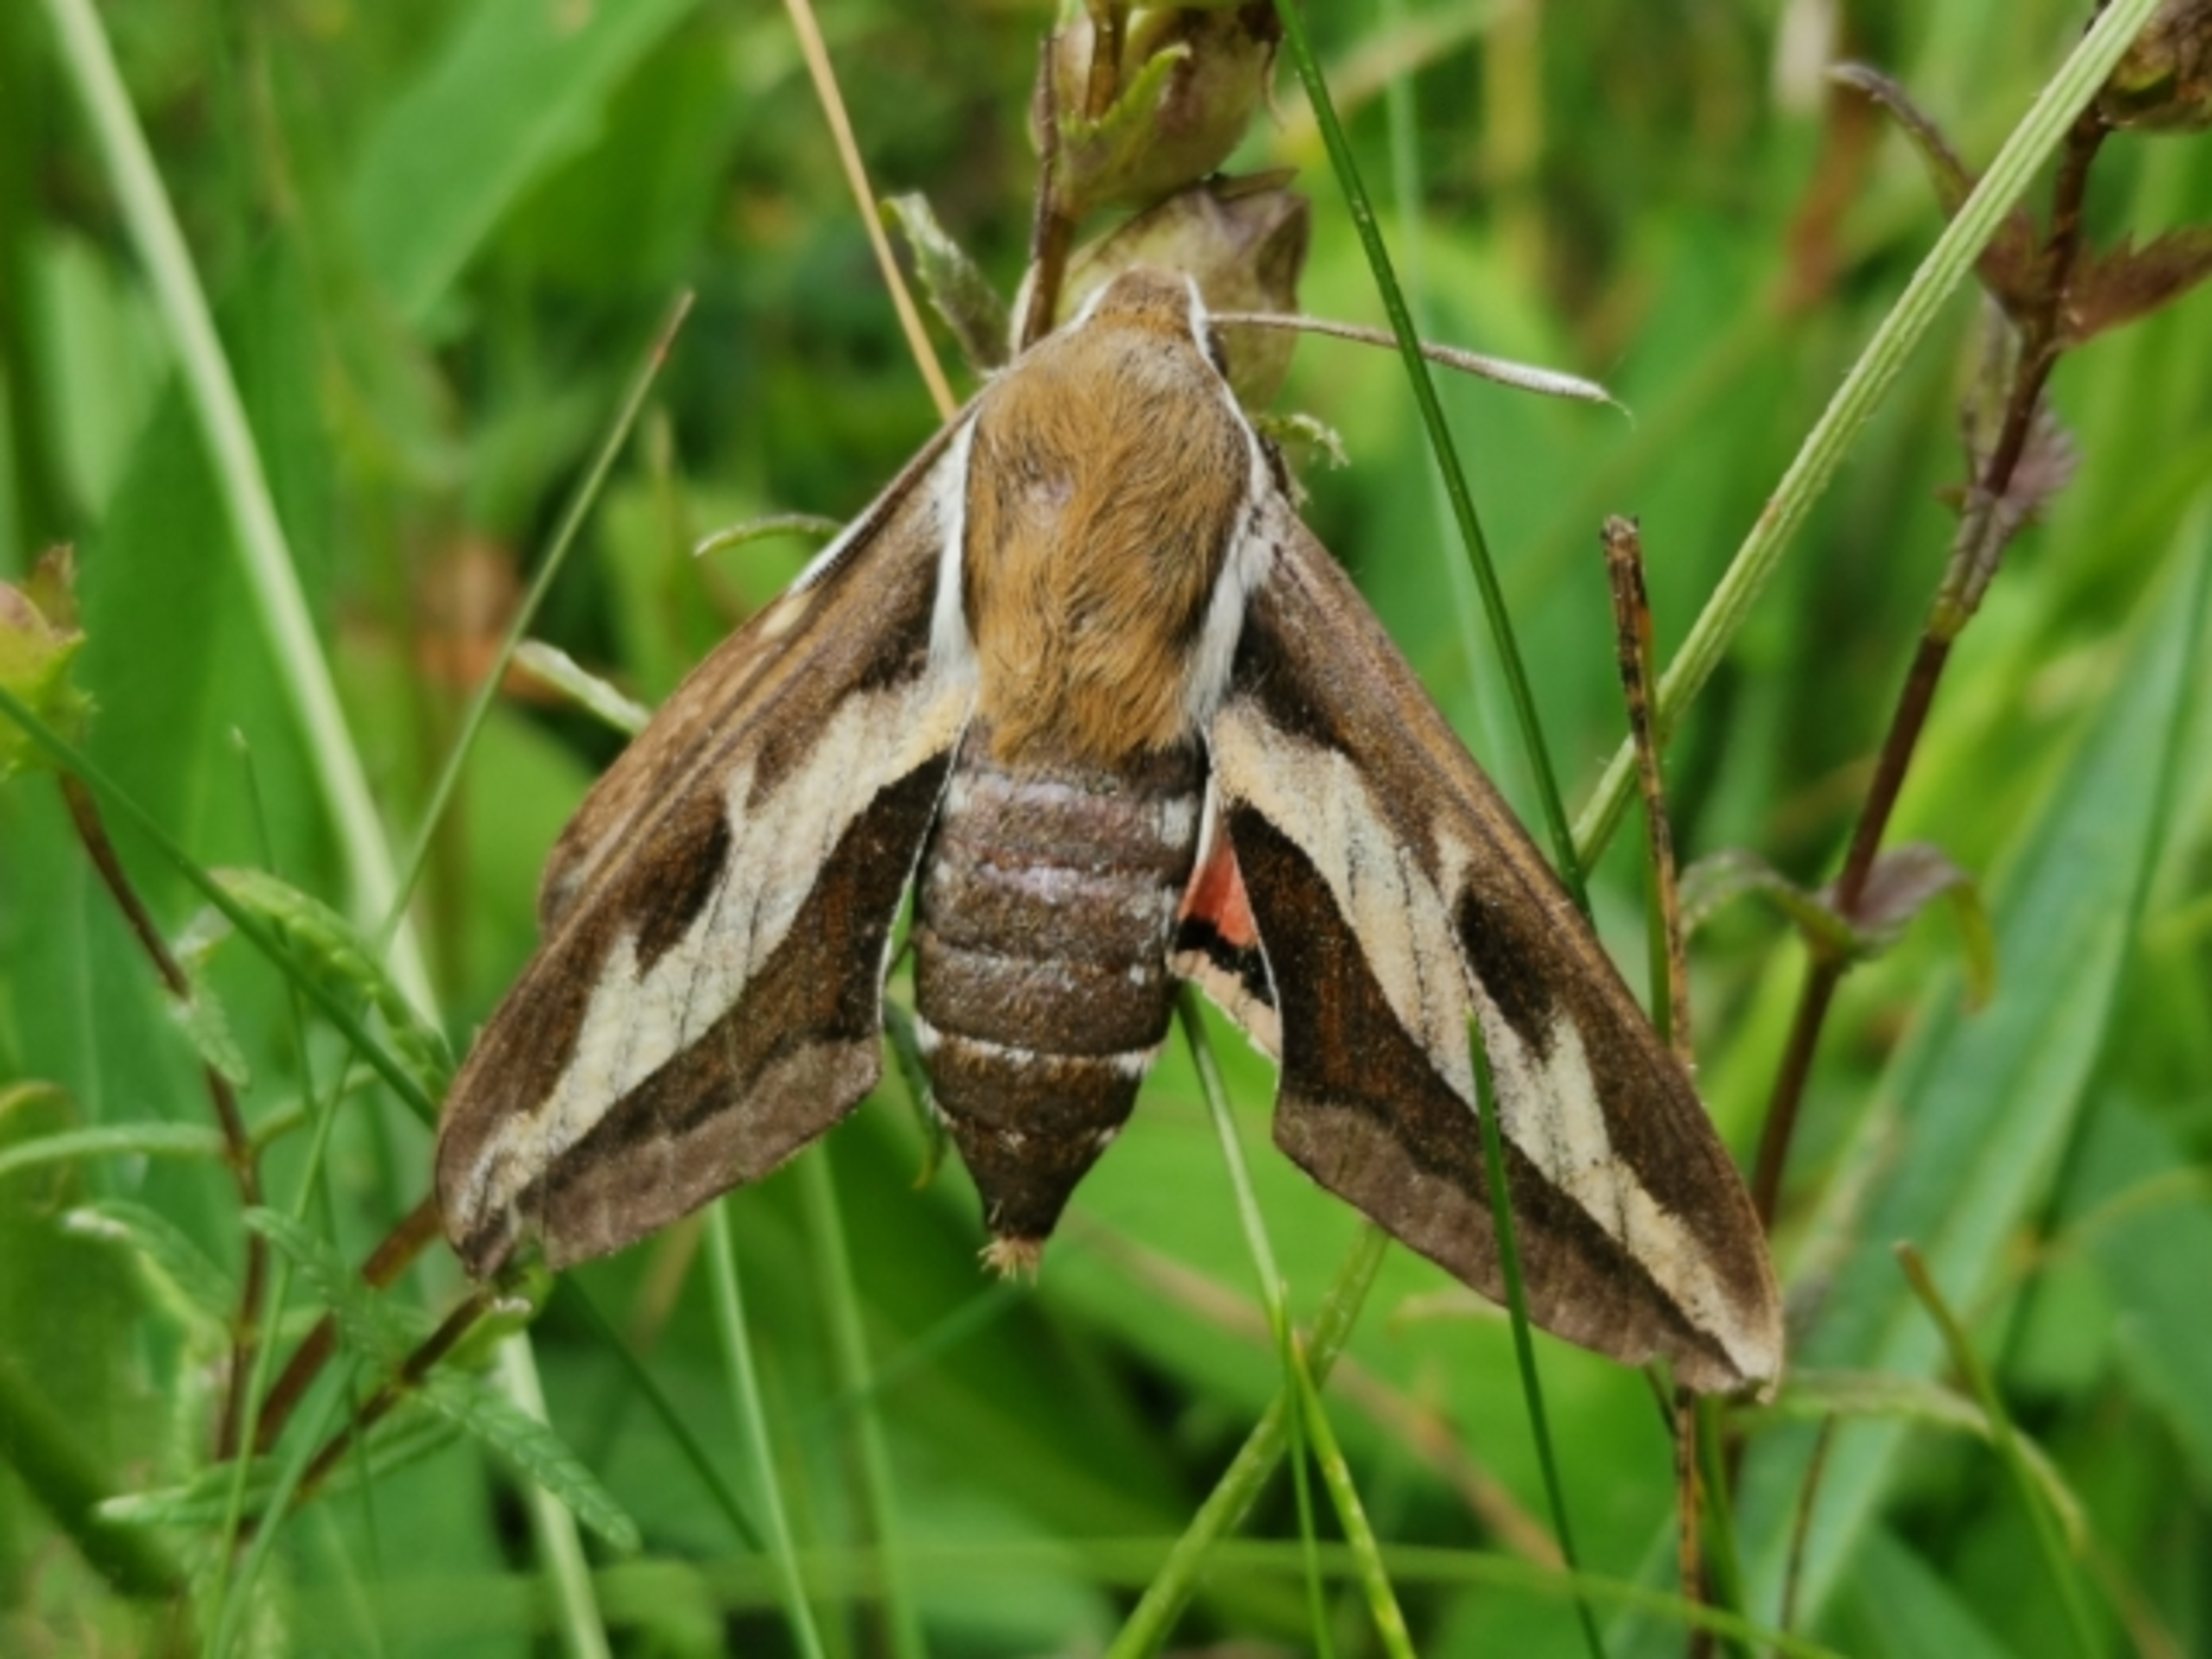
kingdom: Animalia
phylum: Arthropoda
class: Insecta
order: Lepidoptera
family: Sphingidae
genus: Hyles
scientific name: Hyles gallii
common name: Snerresværmer
